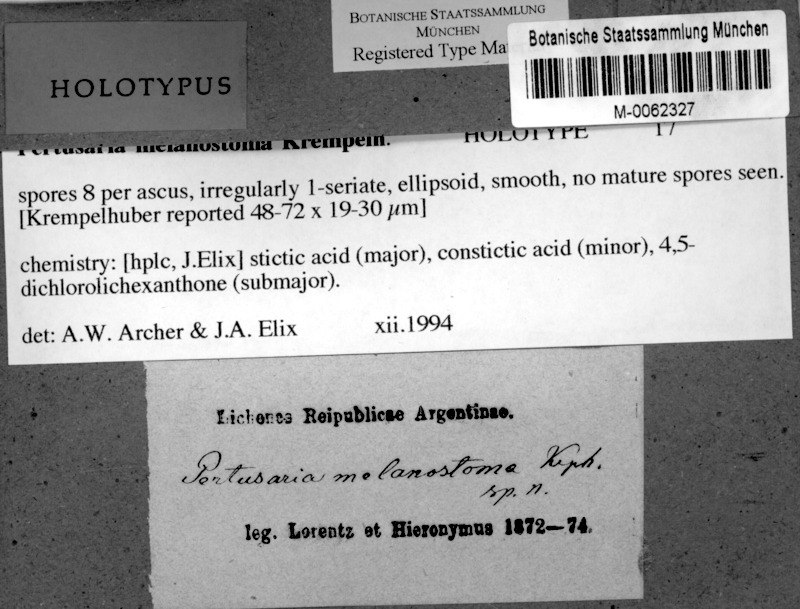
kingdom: Fungi
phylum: Ascomycota
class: Lecanoromycetes
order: Pertusariales
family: Pertusariaceae
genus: Pertusaria
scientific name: Pertusaria
